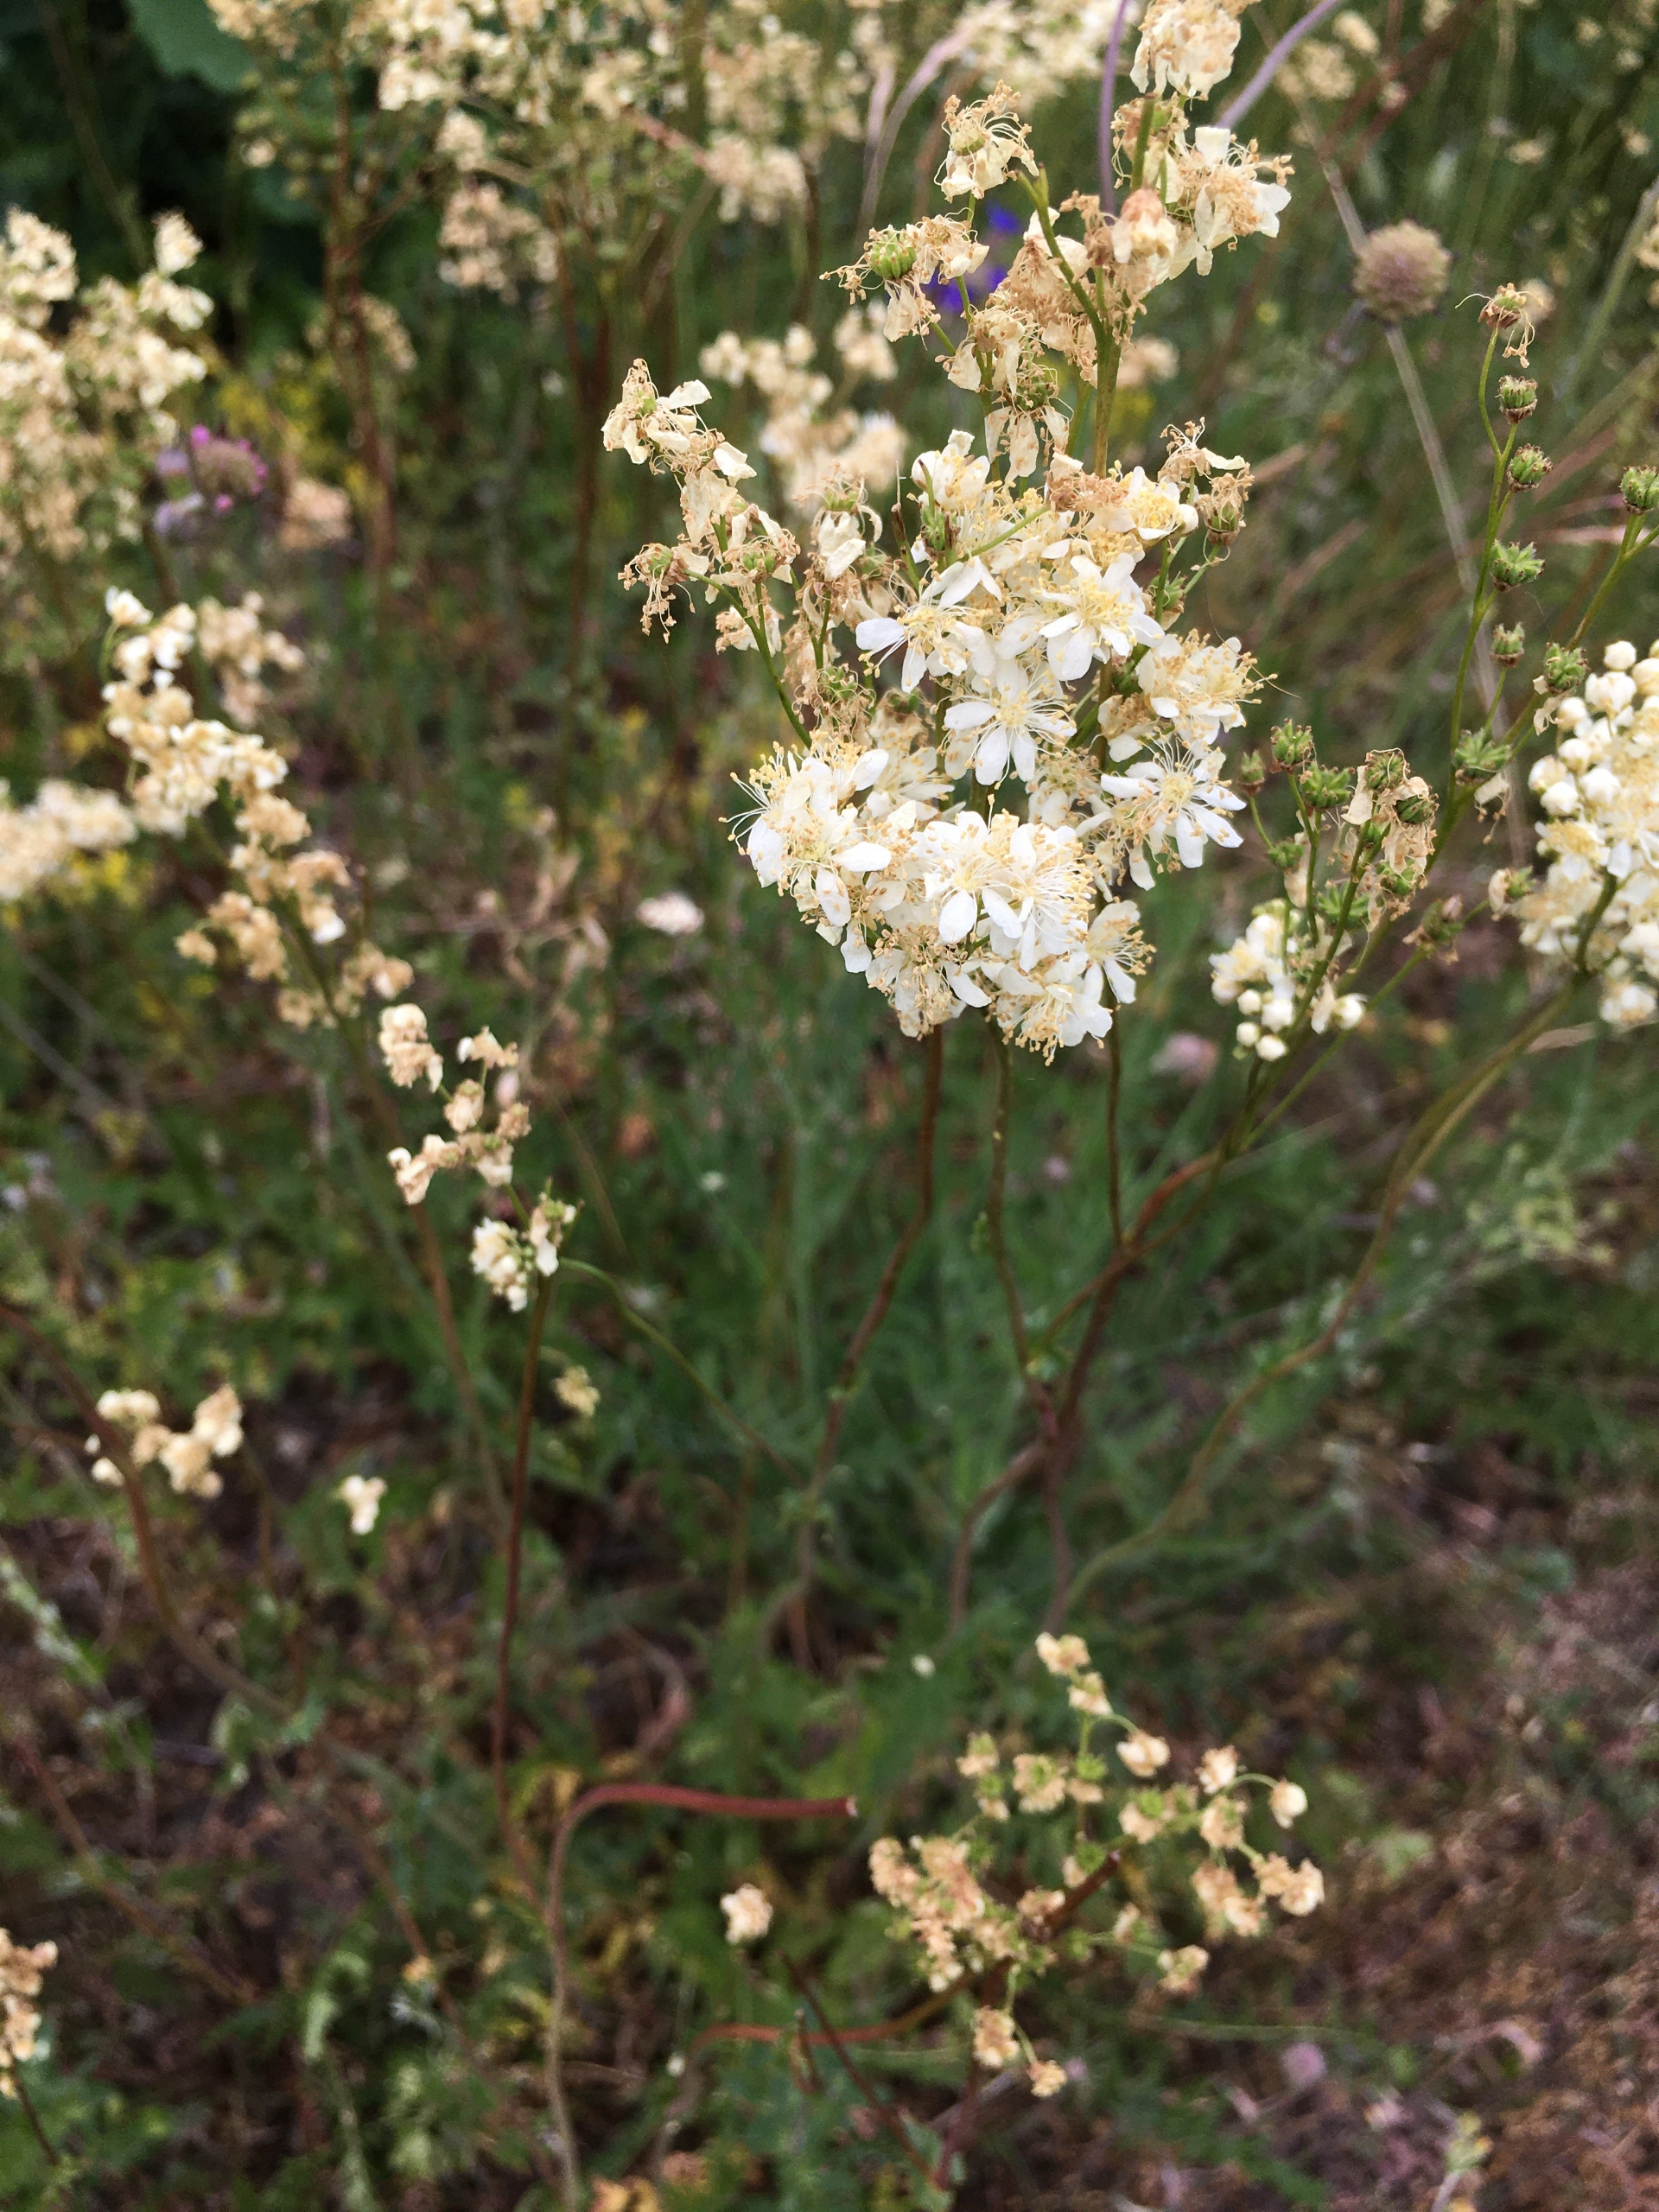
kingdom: Plantae
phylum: Tracheophyta
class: Magnoliopsida
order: Rosales
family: Rosaceae
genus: Filipendula
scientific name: Filipendula vulgaris
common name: Knoldet mjødurt
